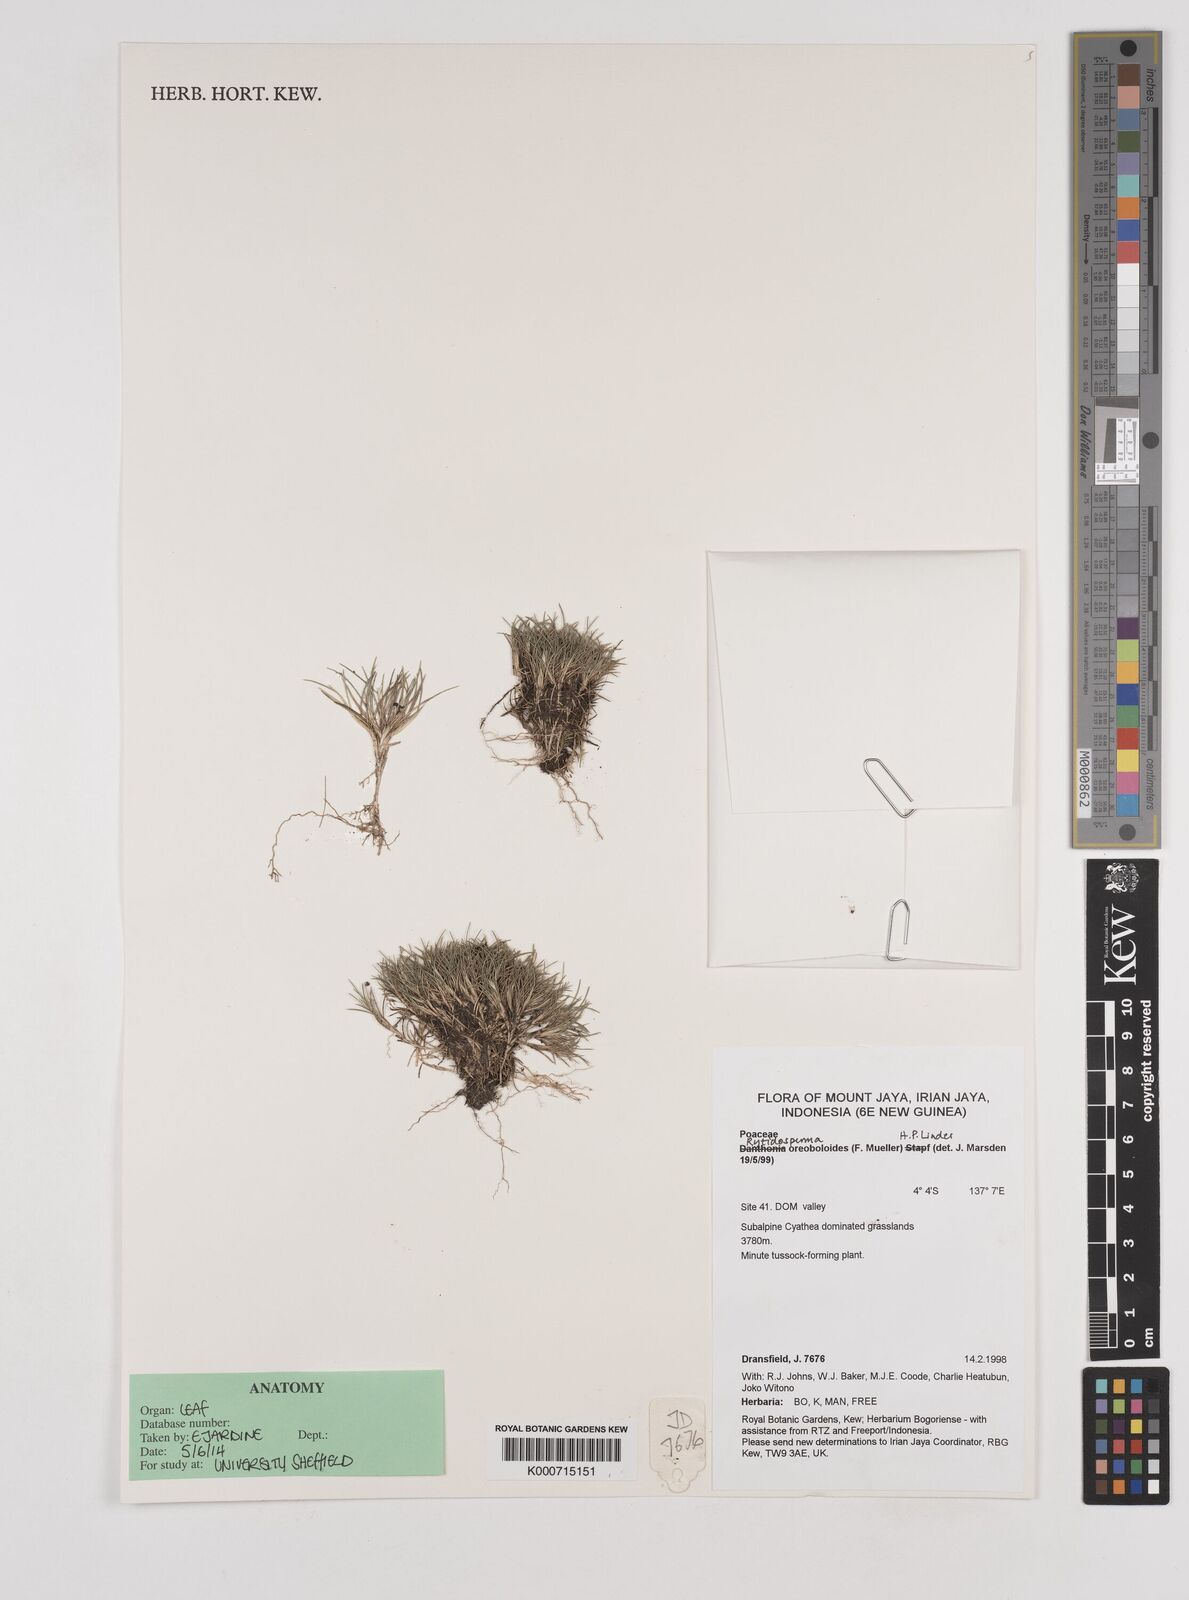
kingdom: Plantae
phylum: Tracheophyta
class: Liliopsida
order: Poales
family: Poaceae
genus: Rytidosperma
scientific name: Rytidosperma oreoboloides
